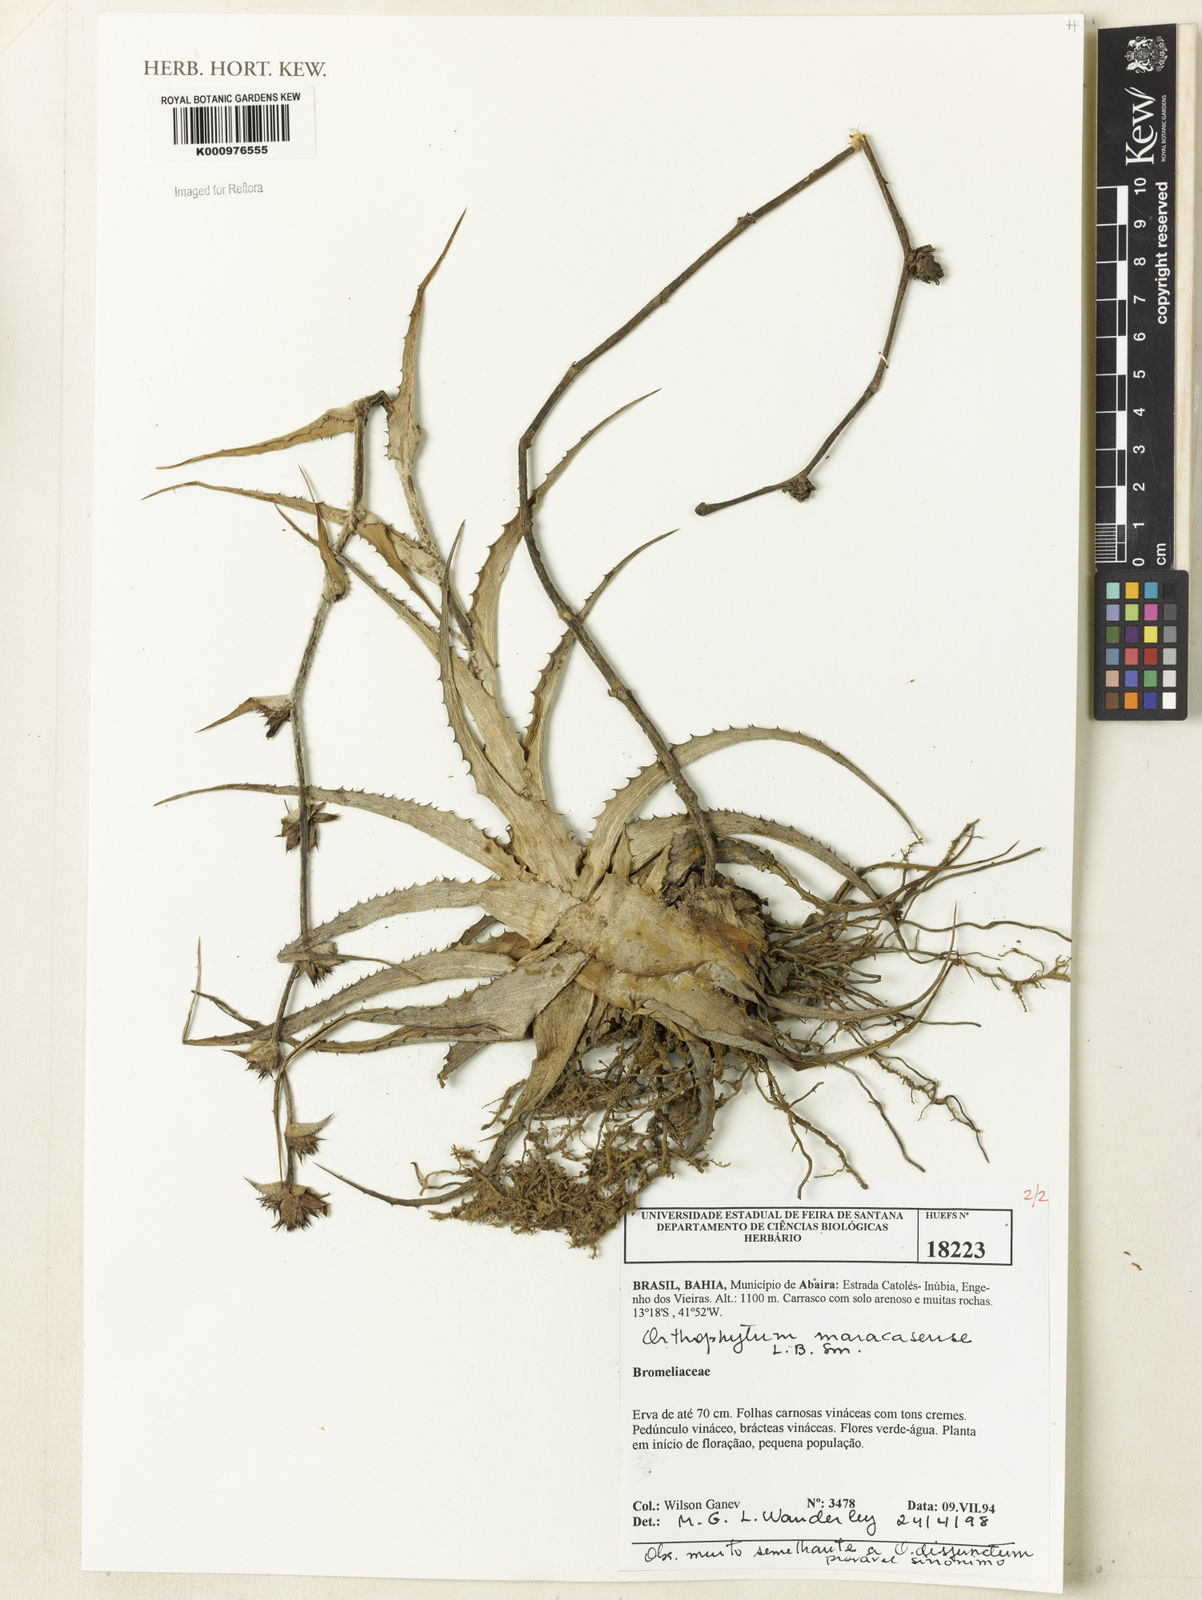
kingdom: Plantae
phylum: Tracheophyta
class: Liliopsida
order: Poales
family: Bromeliaceae
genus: Orthophytum
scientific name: Orthophytum maracasense
